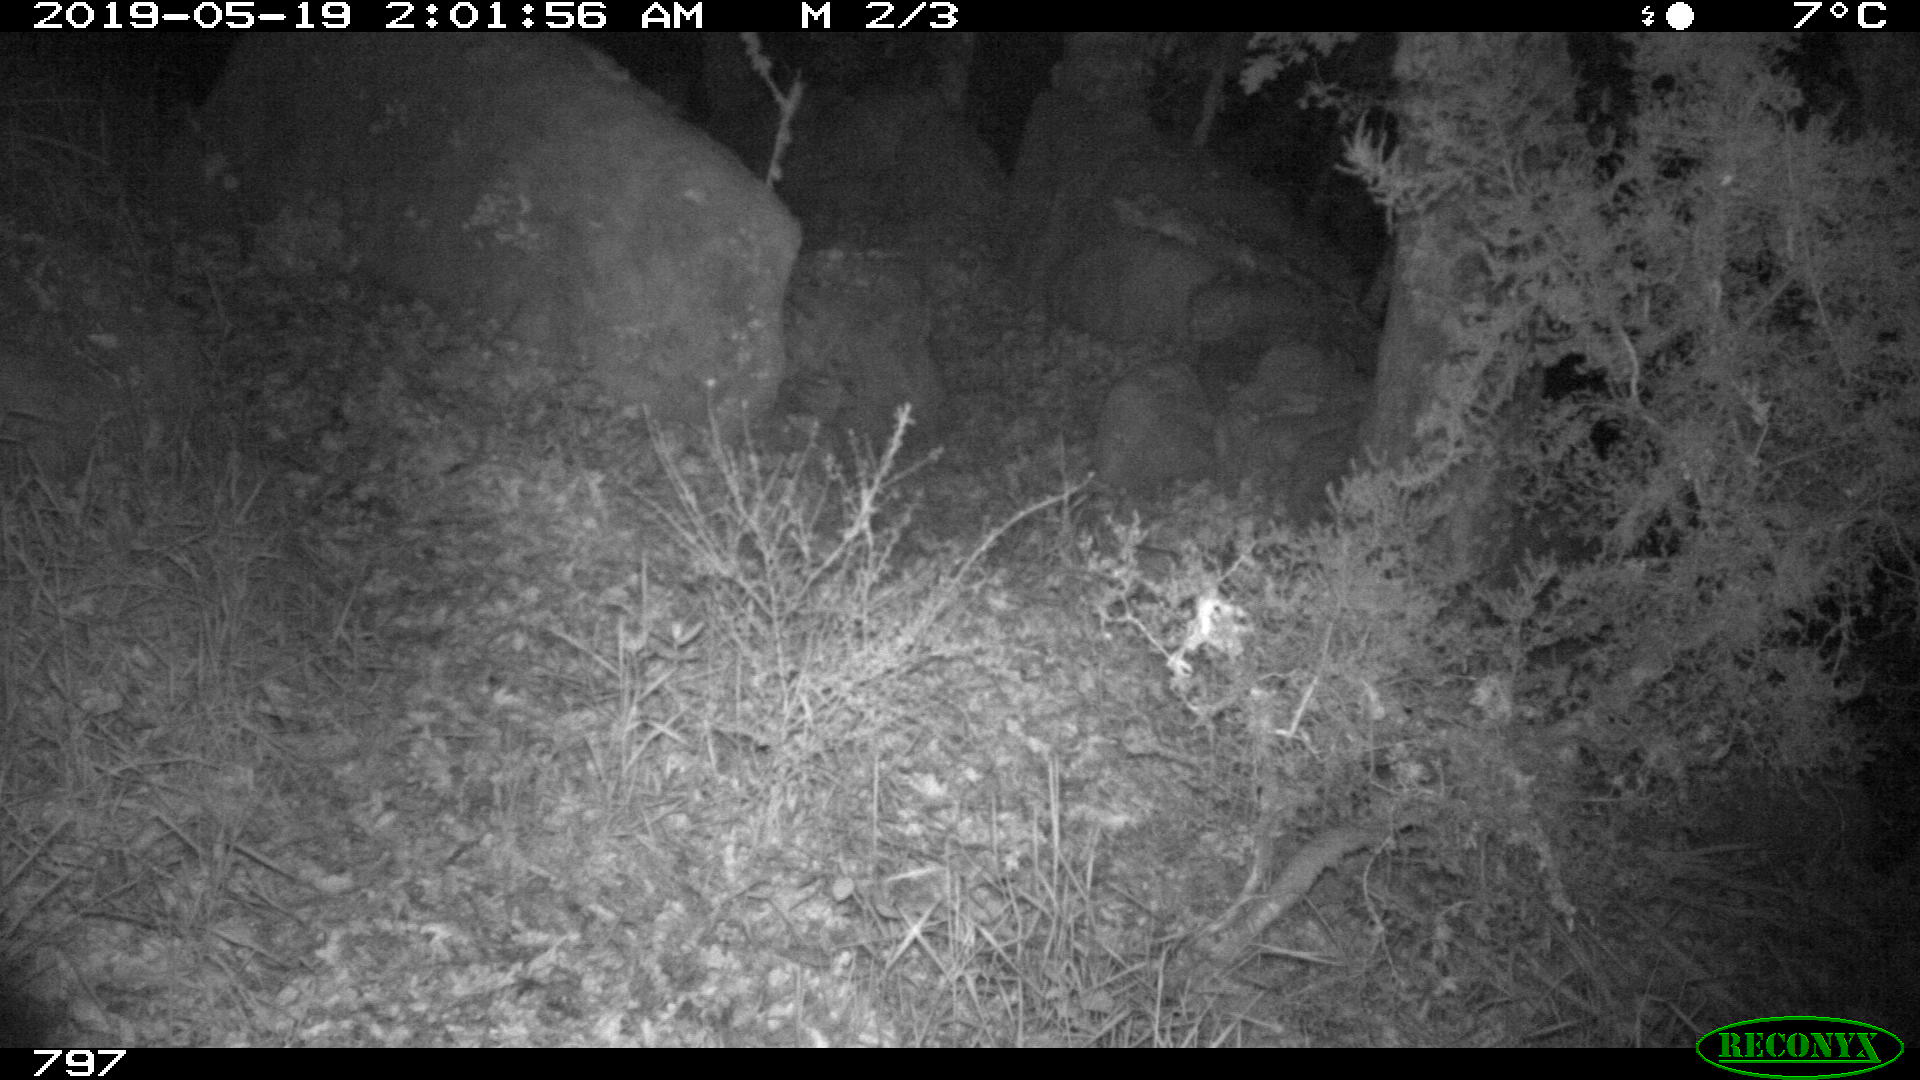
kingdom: Animalia
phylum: Chordata
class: Mammalia
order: Artiodactyla
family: Suidae
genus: Sus
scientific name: Sus scrofa
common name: Wild boar
